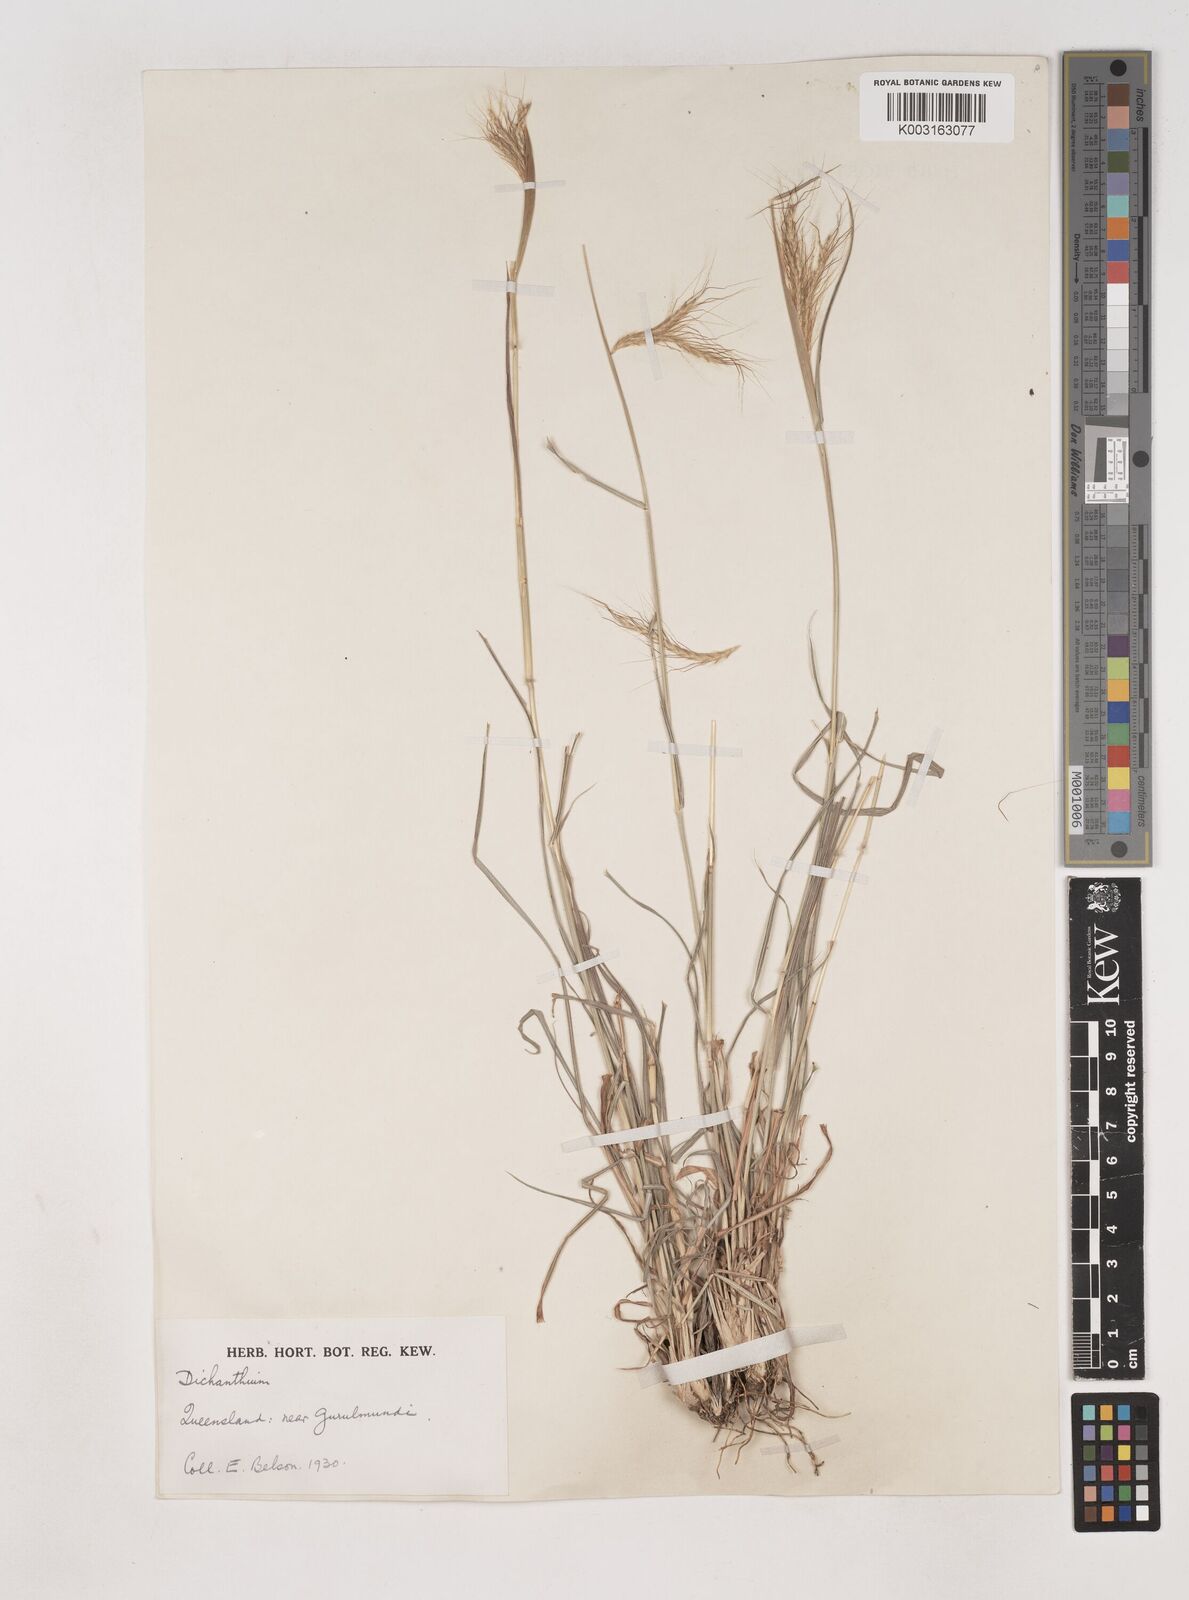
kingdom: Plantae
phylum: Tracheophyta
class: Liliopsida
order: Poales
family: Poaceae
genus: Dichanthium
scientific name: Dichanthium sericeum
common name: Silky bluestem
